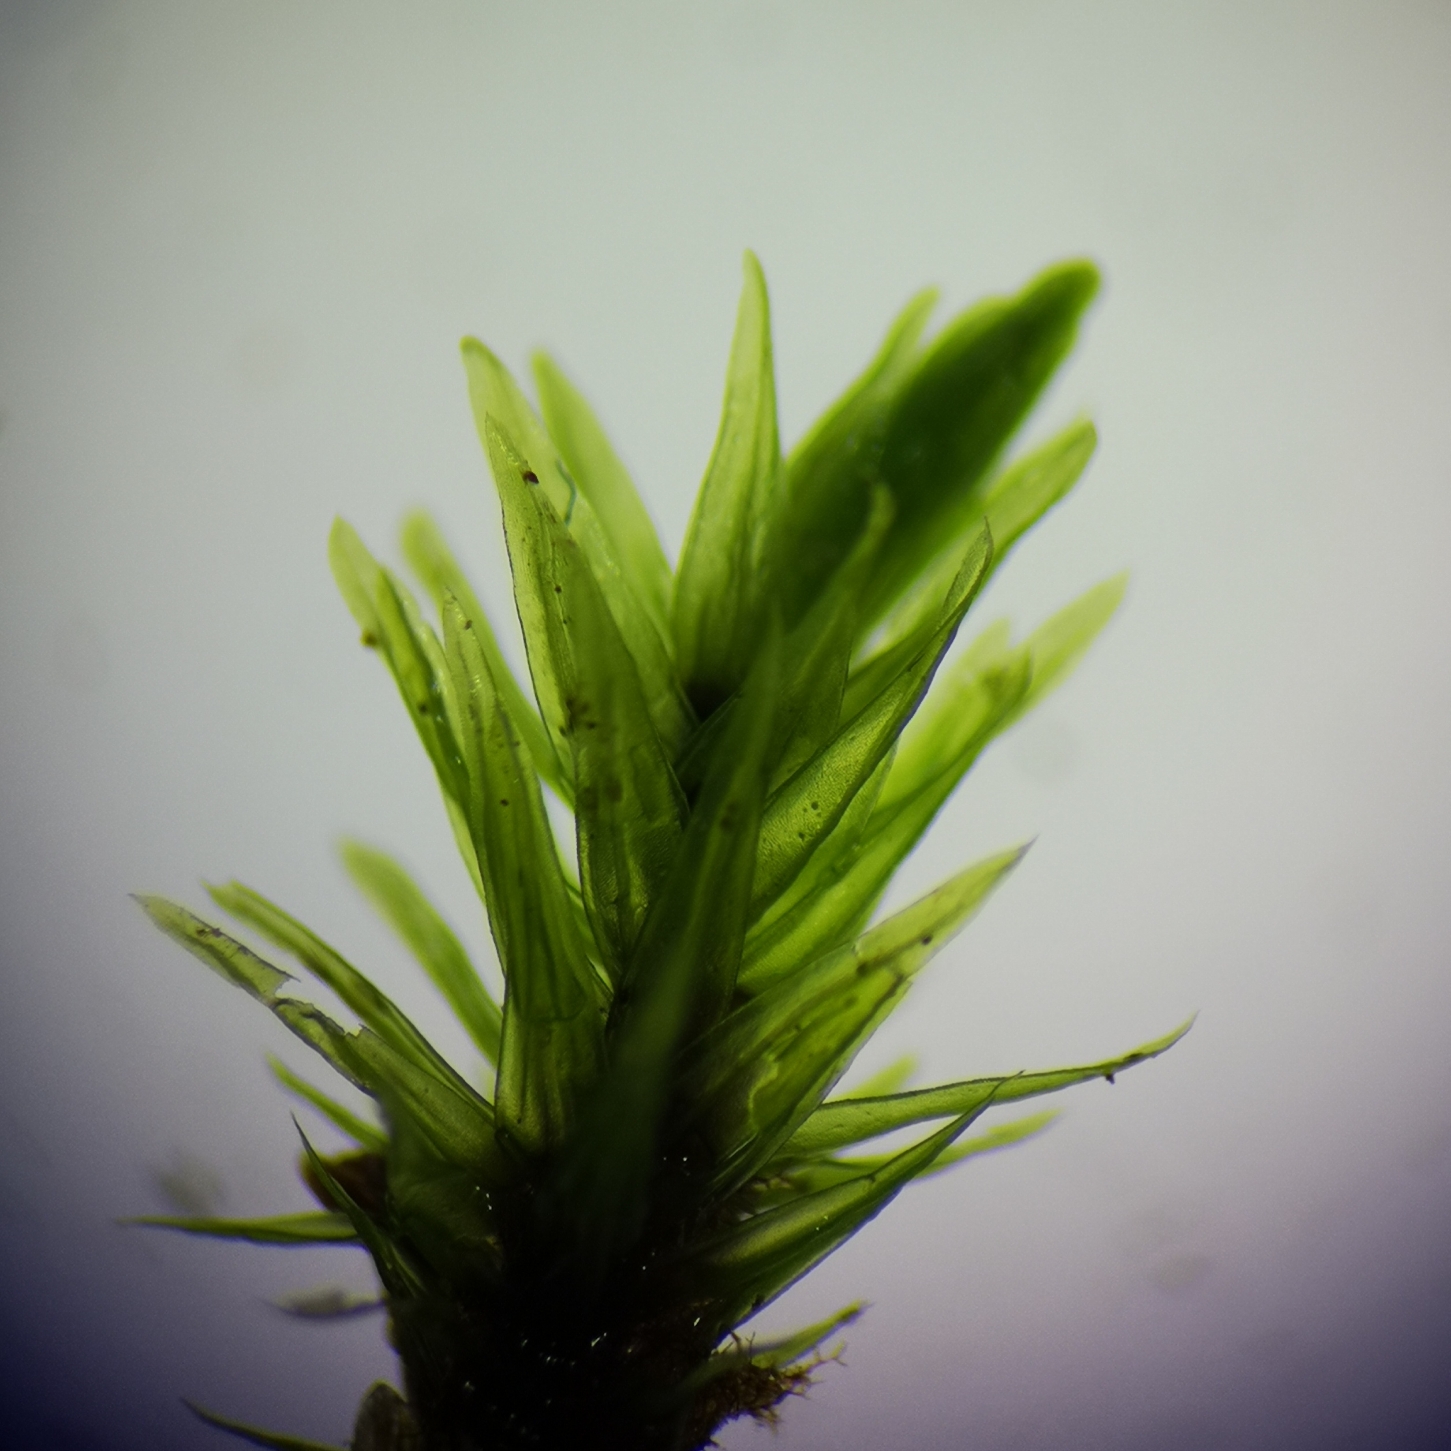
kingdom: Plantae
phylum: Bryophyta
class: Bryopsida
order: Aulacomniales
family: Aulacomniaceae
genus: Aulacomnium
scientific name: Aulacomnium palustre
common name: Almindelig filtmos
